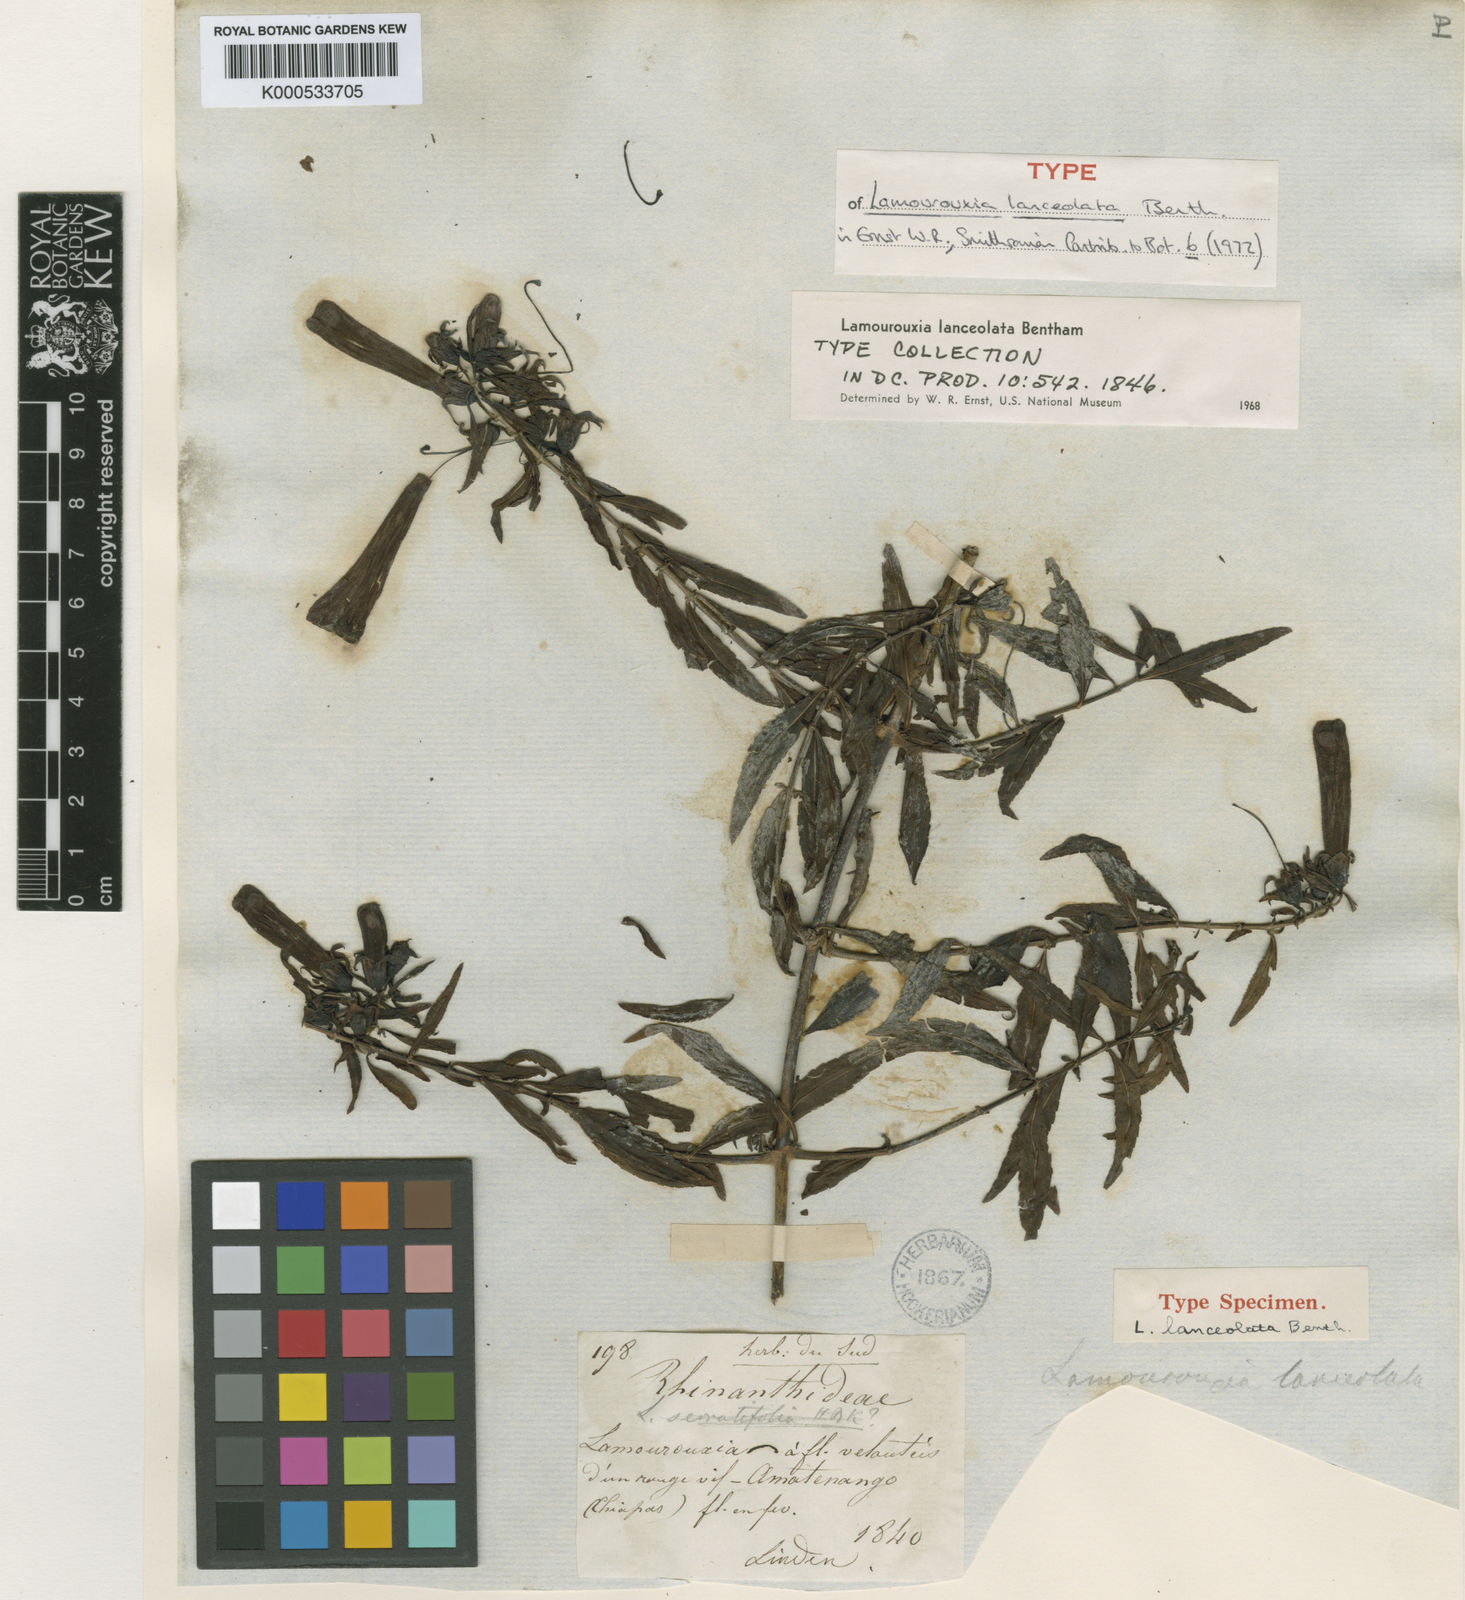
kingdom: Plantae
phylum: Tracheophyta
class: Magnoliopsida
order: Lamiales
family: Orobanchaceae
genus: Lamourouxia
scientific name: Lamourouxia lanceolata
